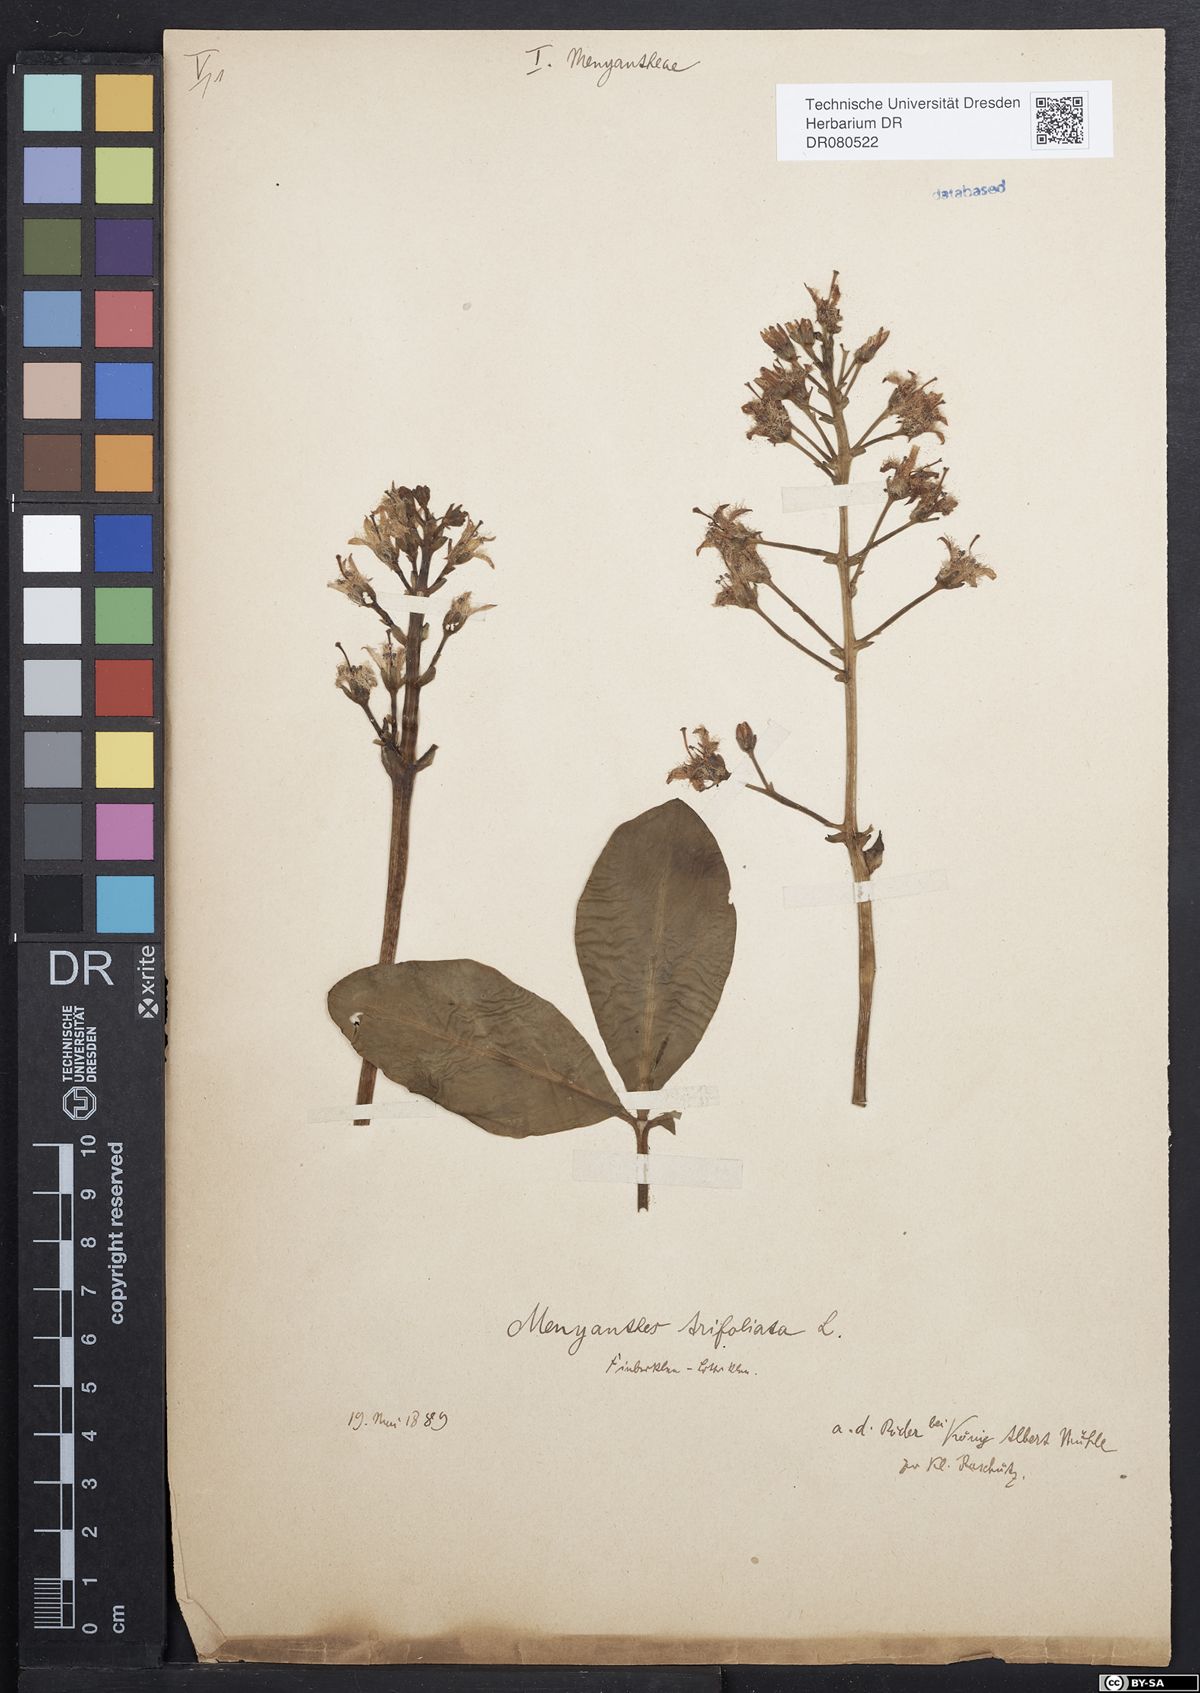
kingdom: Plantae
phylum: Tracheophyta
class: Magnoliopsida
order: Asterales
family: Menyanthaceae
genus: Menyanthes
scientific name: Menyanthes trifoliata
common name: Bogbean
